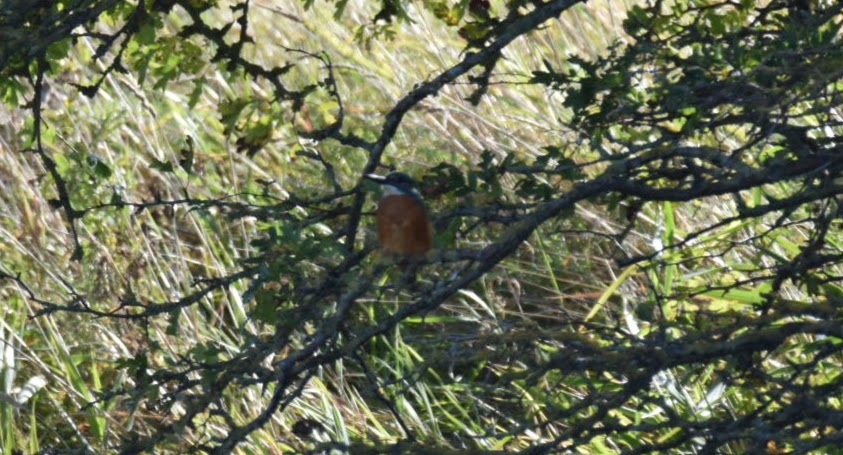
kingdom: Animalia
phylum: Chordata
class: Aves
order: Coraciiformes
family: Alcedinidae
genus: Alcedo
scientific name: Alcedo atthis
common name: Isfugl
